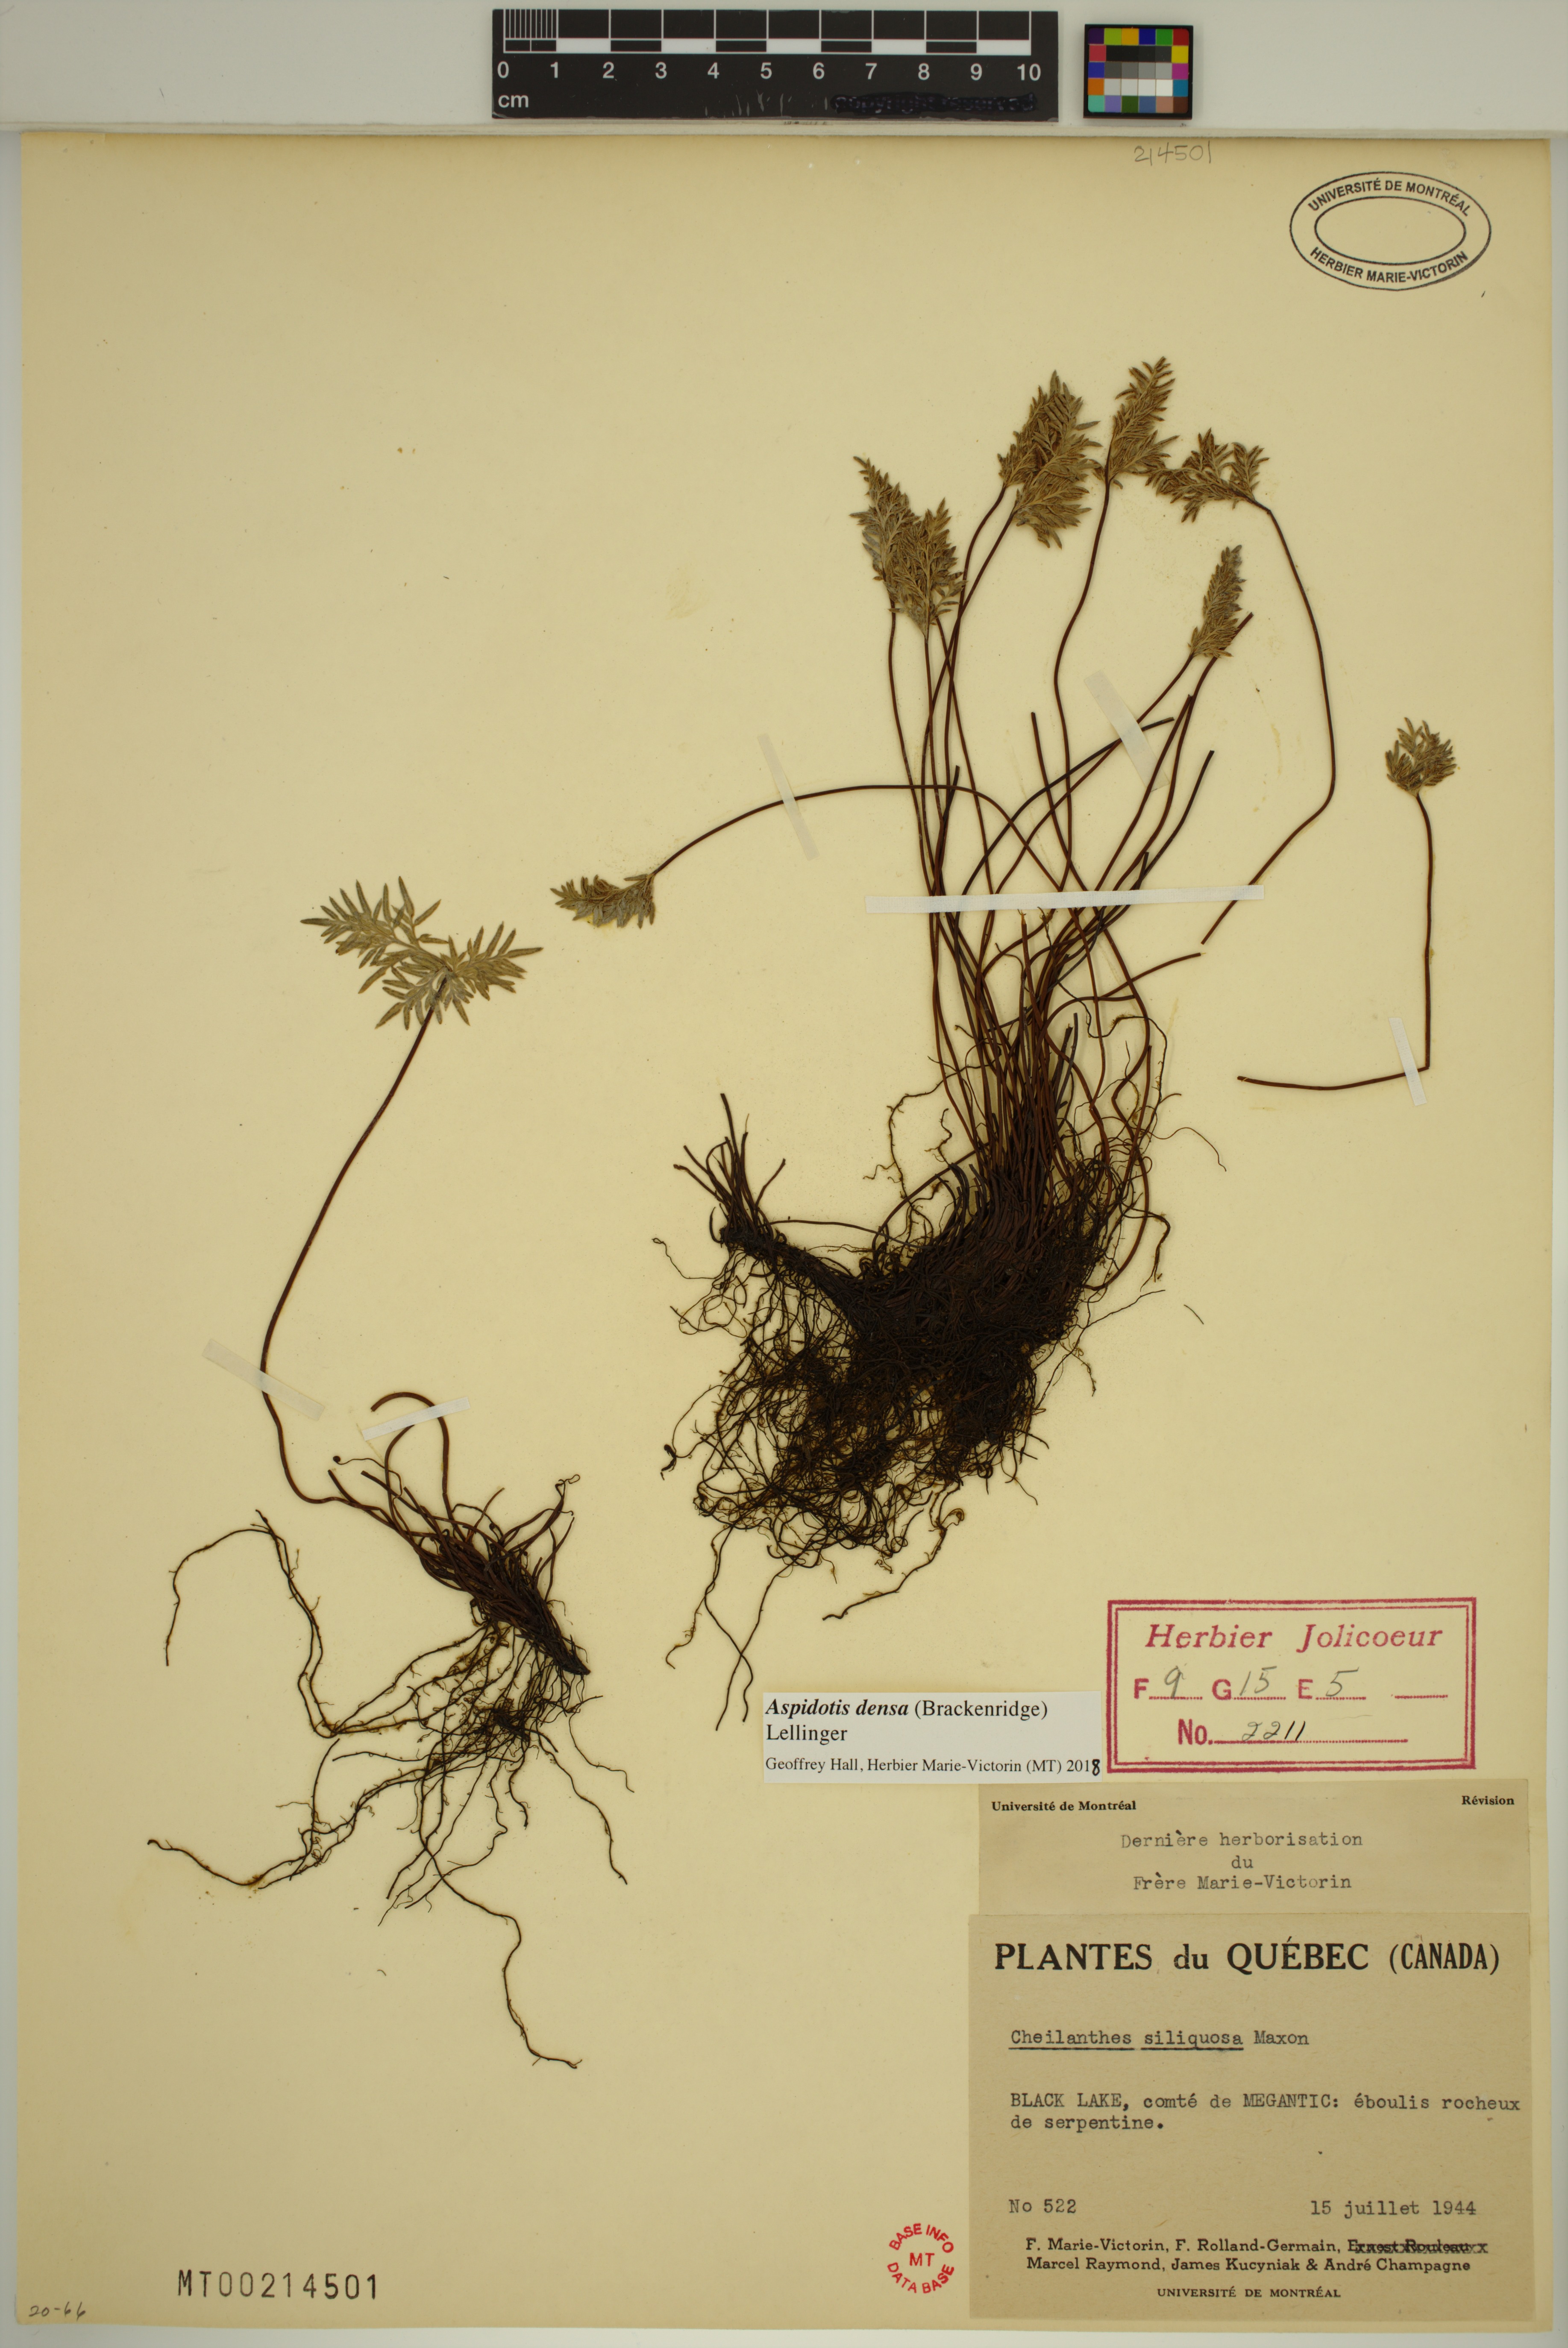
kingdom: Plantae
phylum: Tracheophyta
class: Polypodiopsida
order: Polypodiales
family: Pteridaceae
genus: Aspidotis
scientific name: Aspidotis densa
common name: Indian's dream
